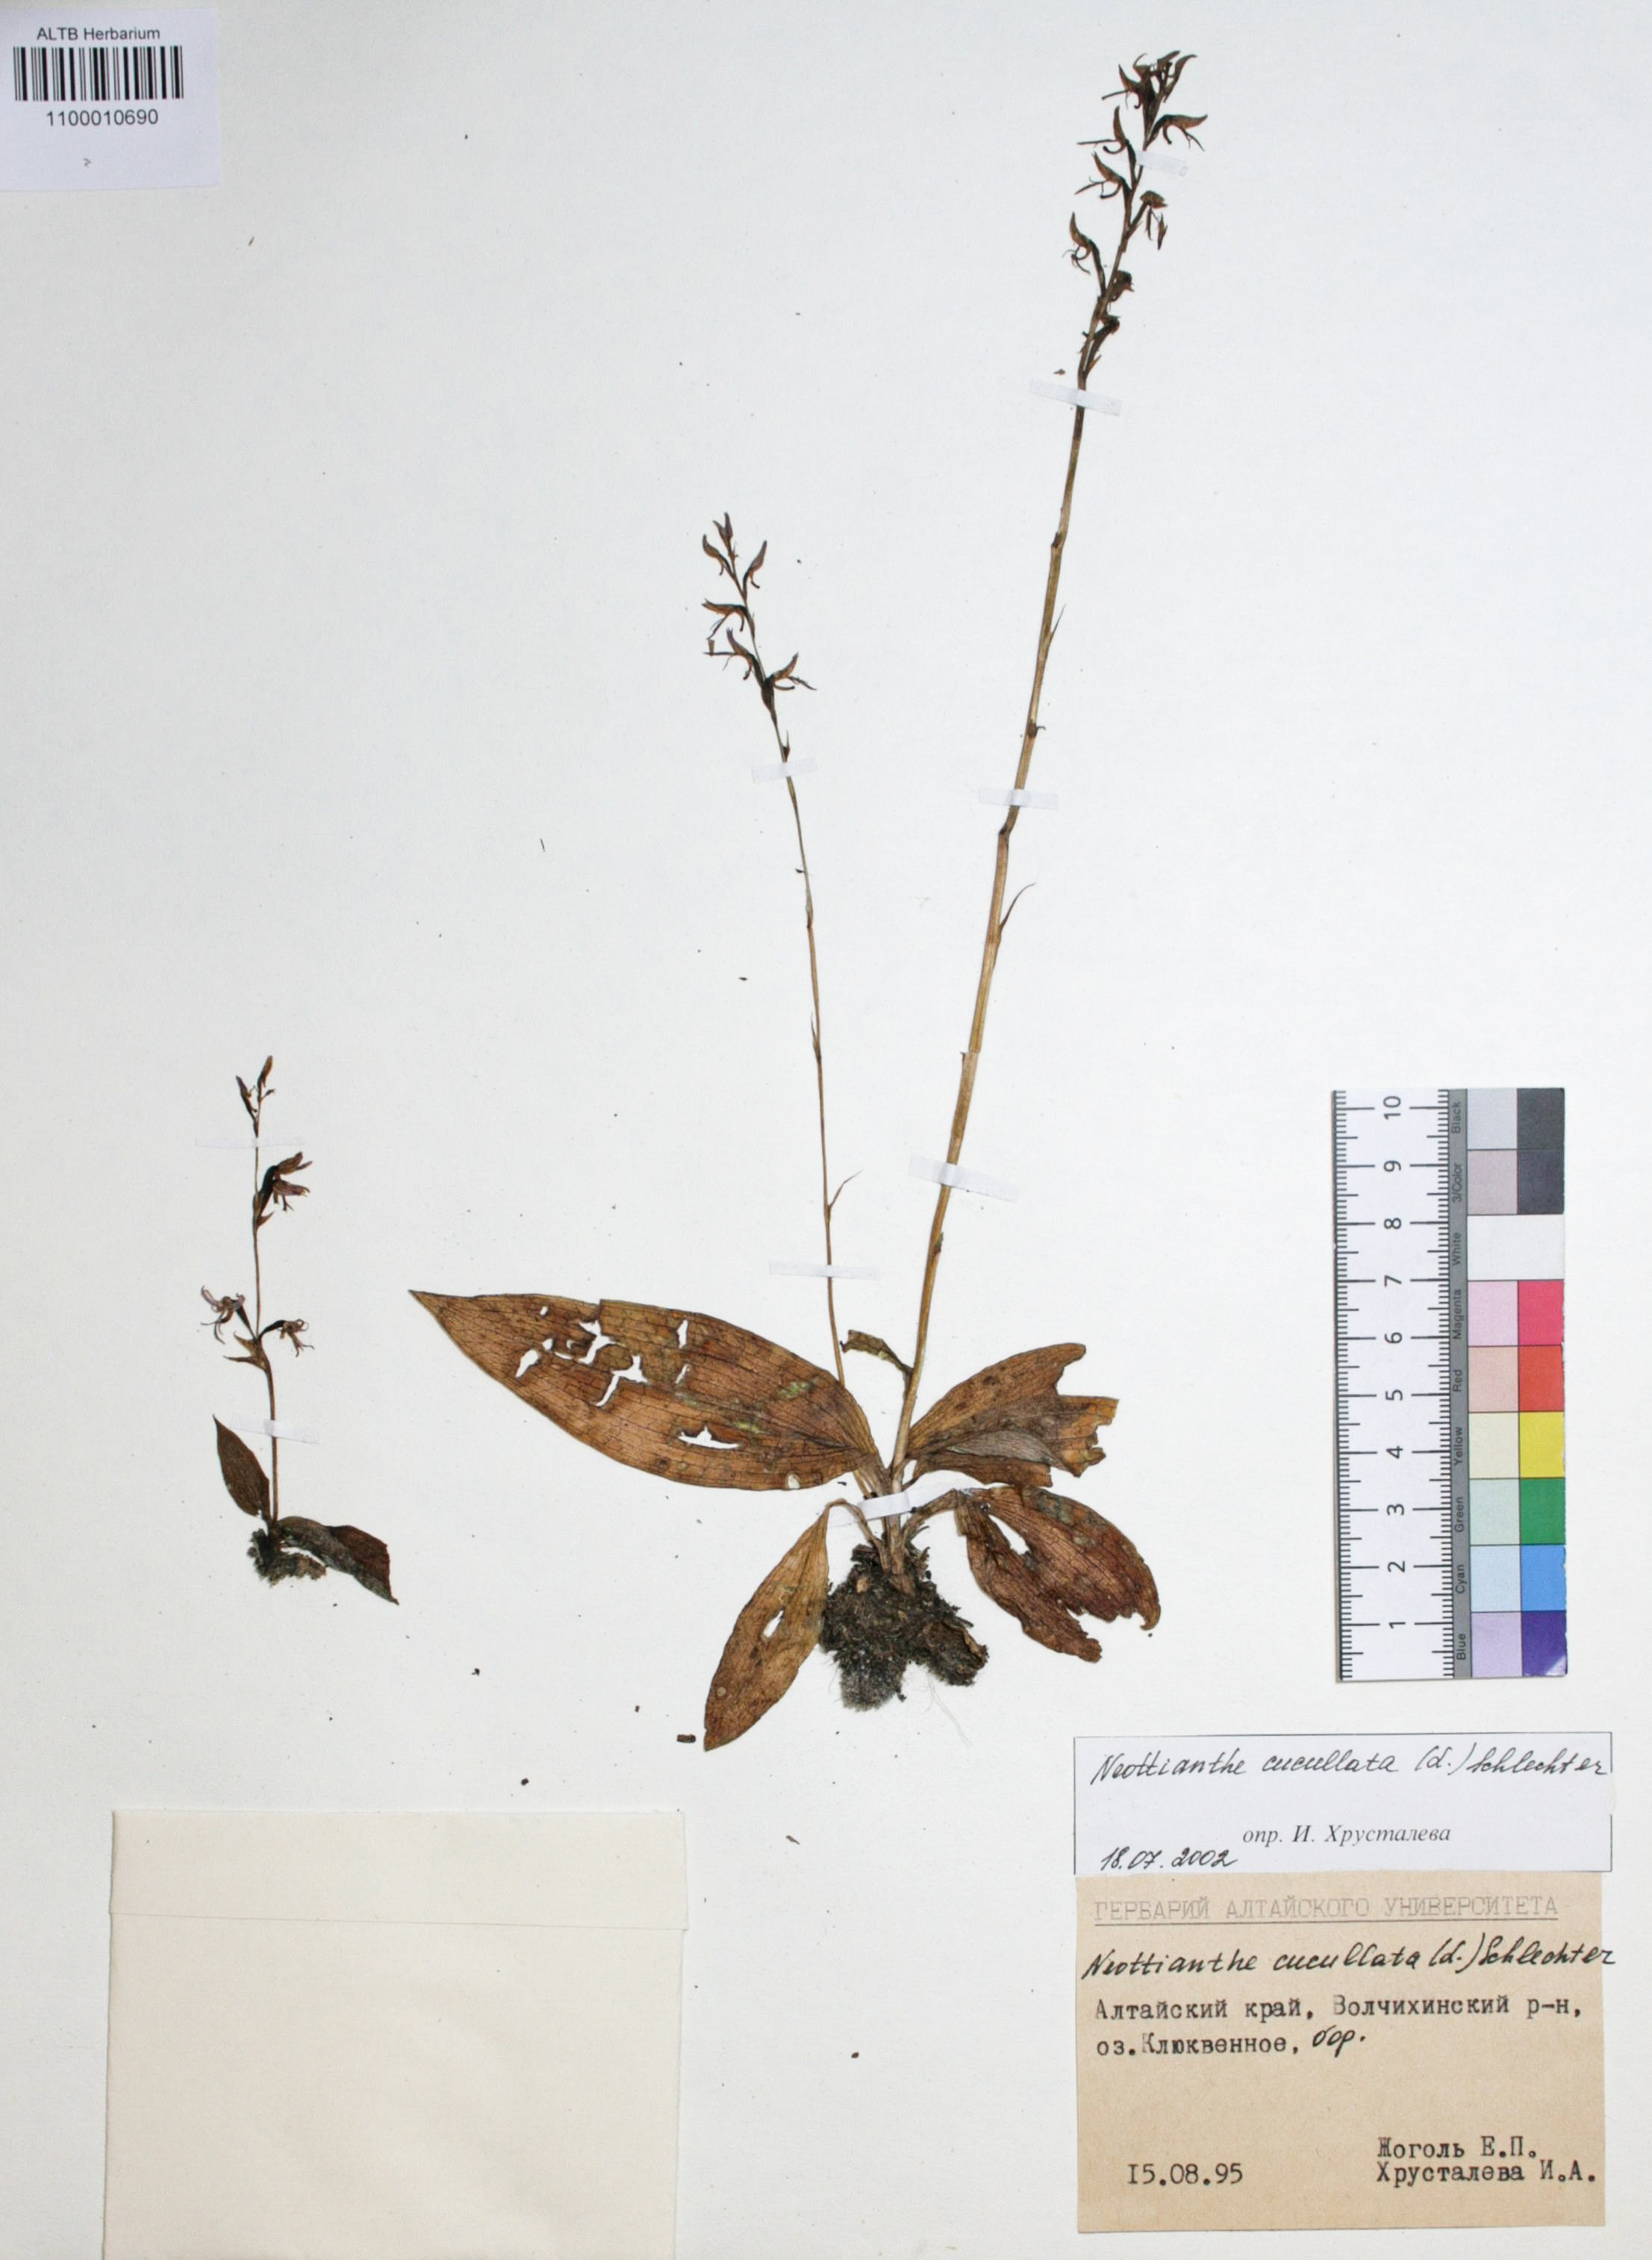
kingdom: Plantae
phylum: Tracheophyta
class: Liliopsida
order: Asparagales
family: Orchidaceae
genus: Hemipilia
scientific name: Hemipilia cucullata
